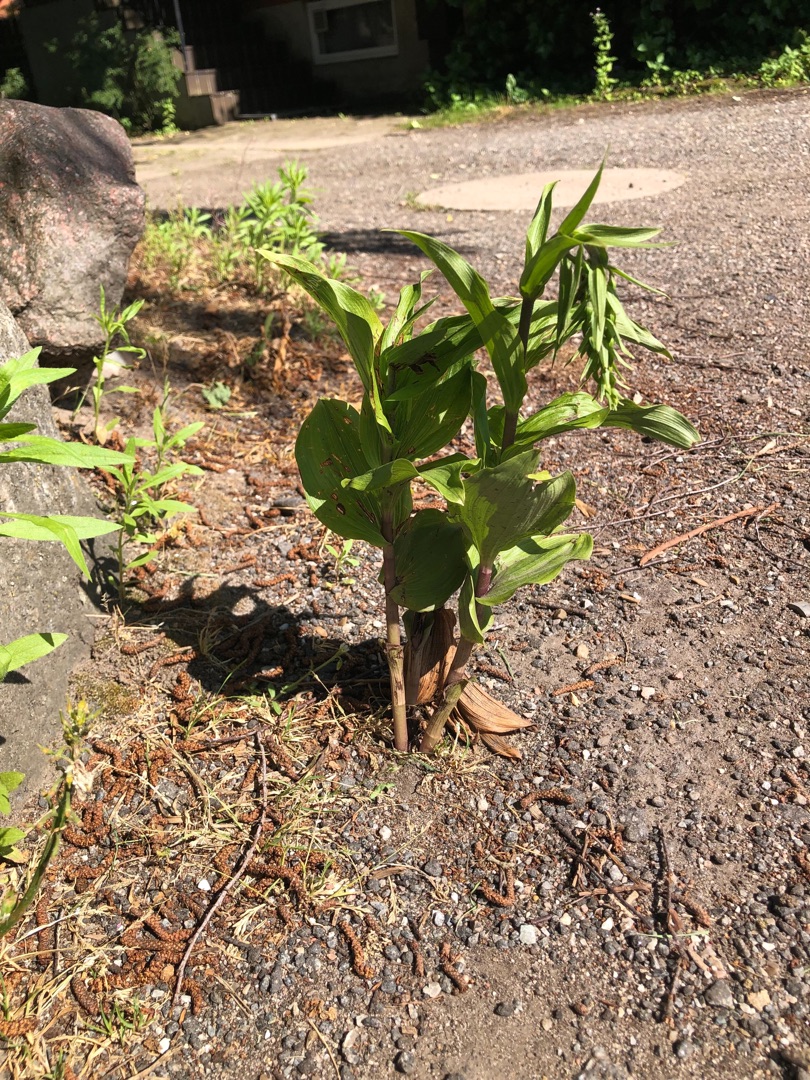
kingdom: Plantae
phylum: Tracheophyta
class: Liliopsida
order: Asparagales
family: Orchidaceae
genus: Epipactis
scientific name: Epipactis helleborine
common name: Skov-hullæbe
